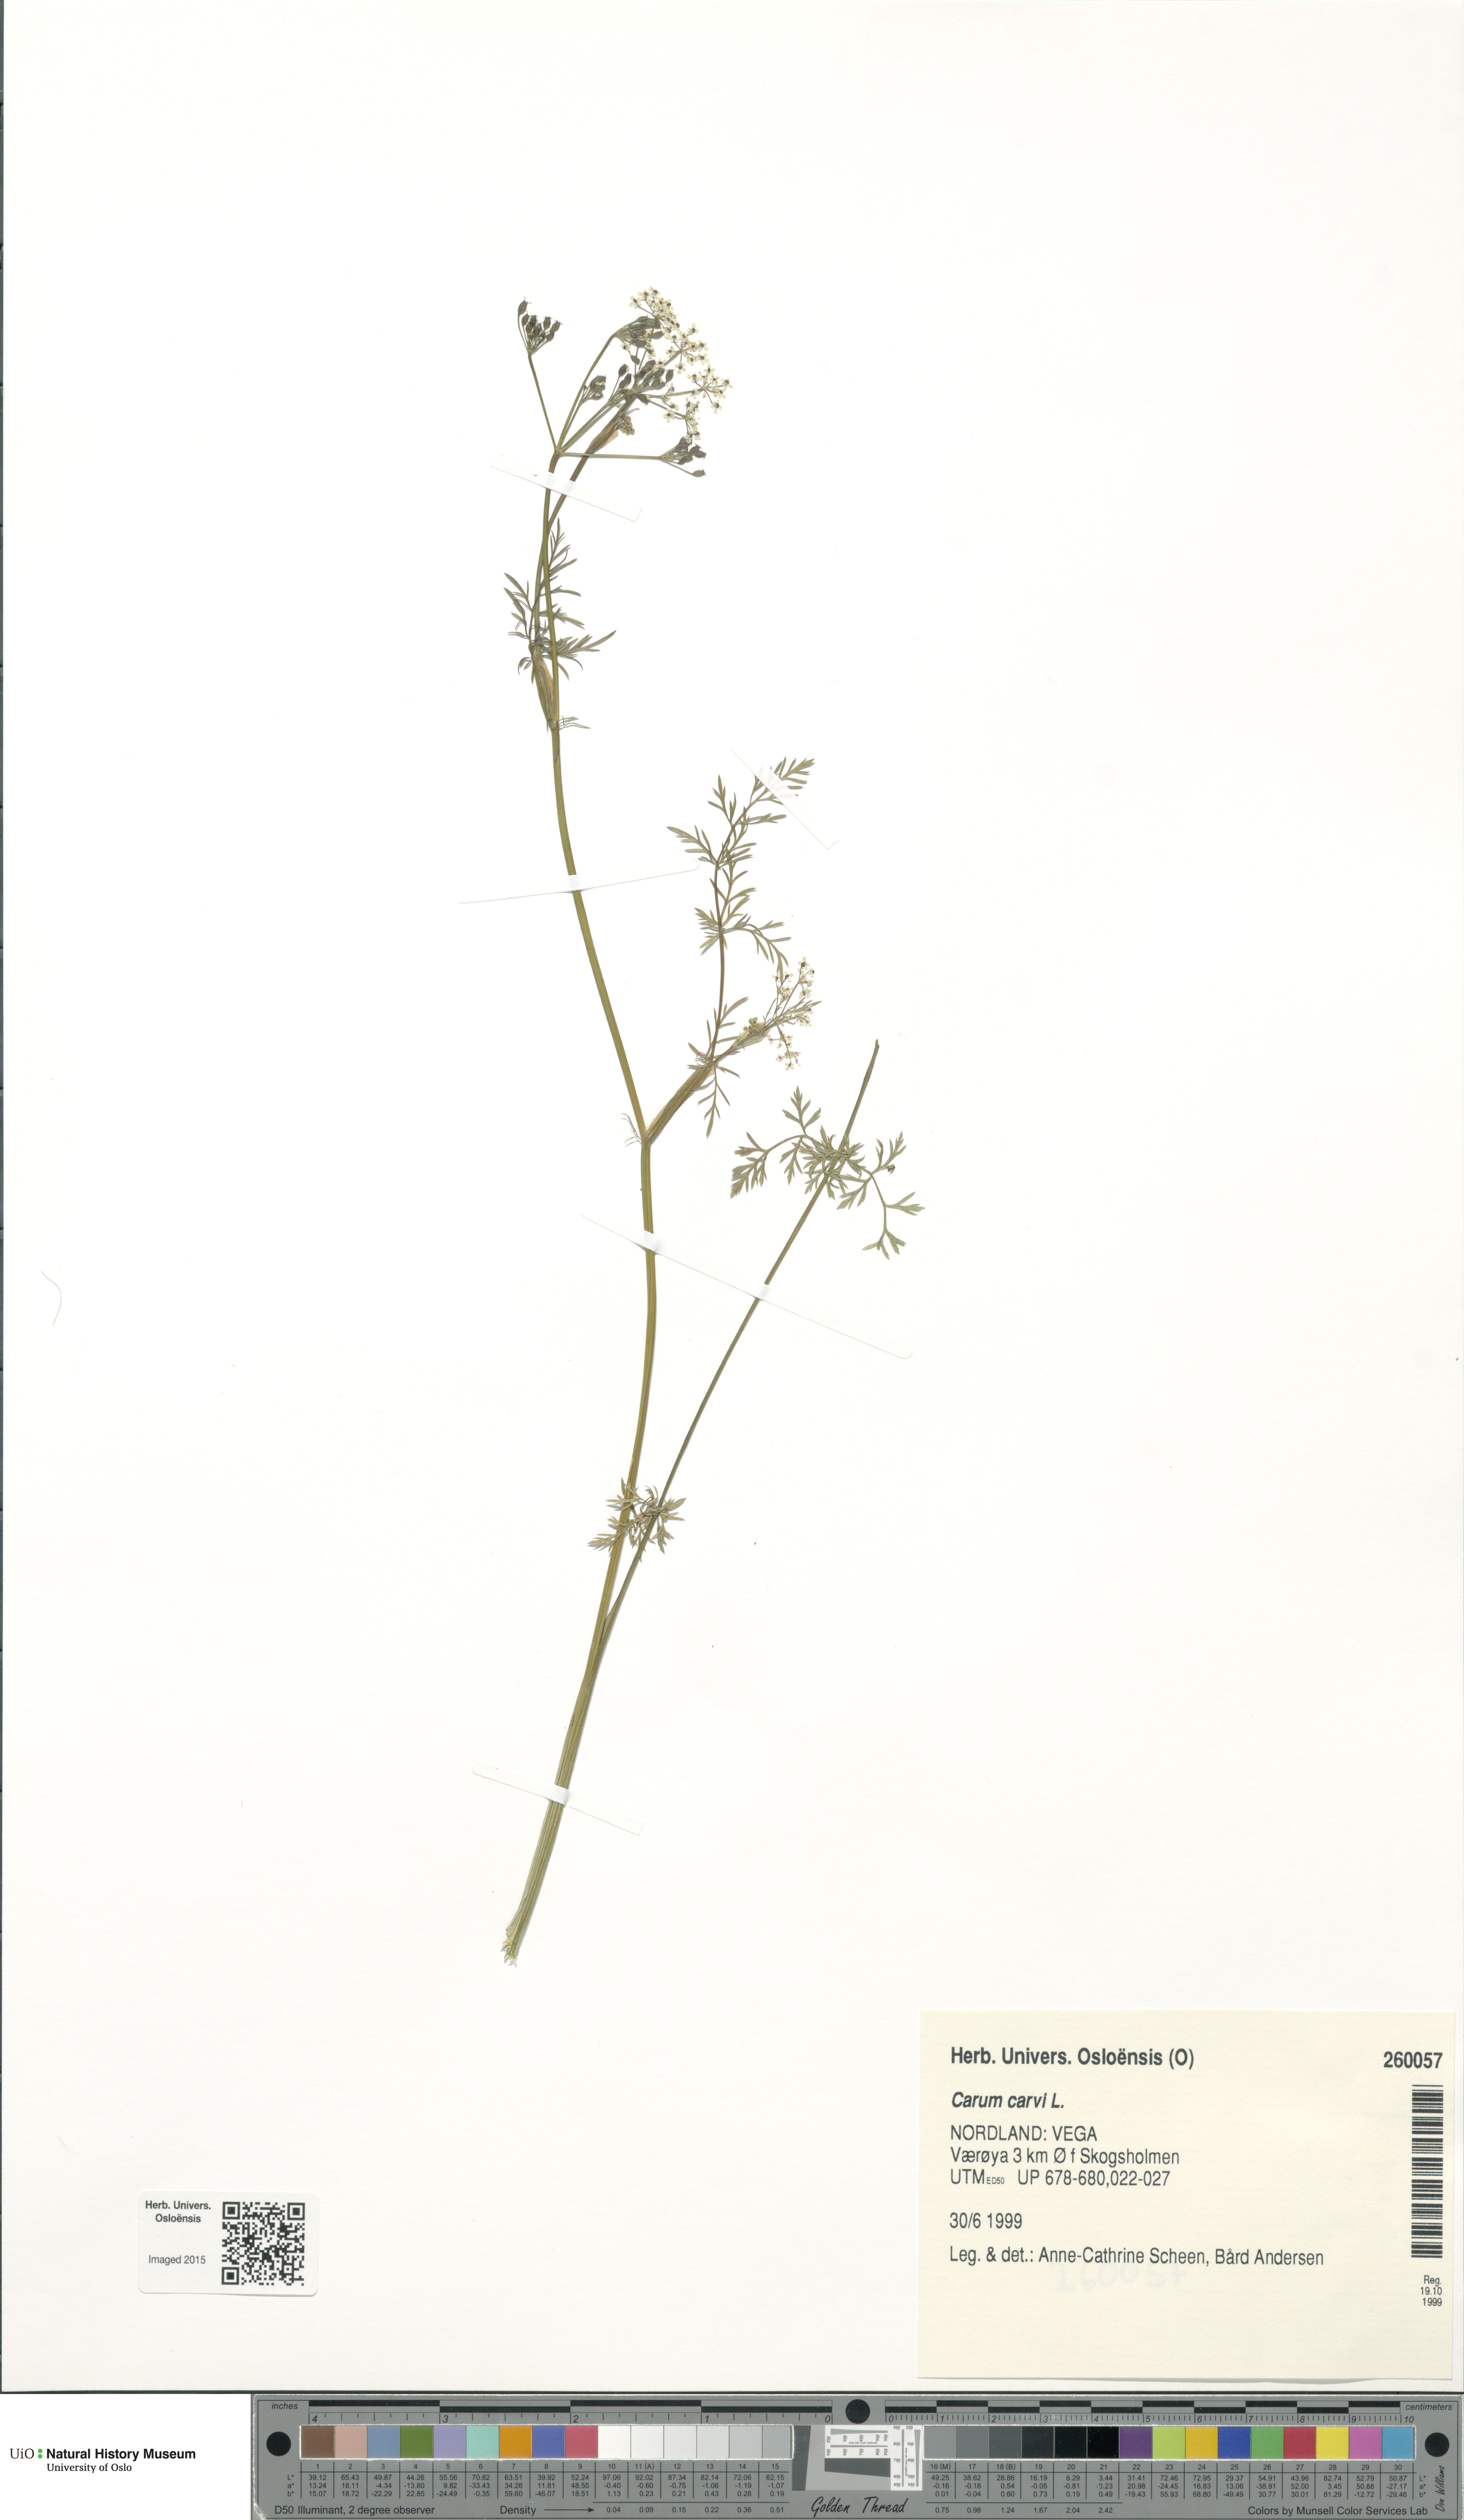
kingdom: Plantae
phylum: Tracheophyta
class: Magnoliopsida
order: Apiales
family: Apiaceae
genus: Carum
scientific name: Carum carvi
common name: Caraway
